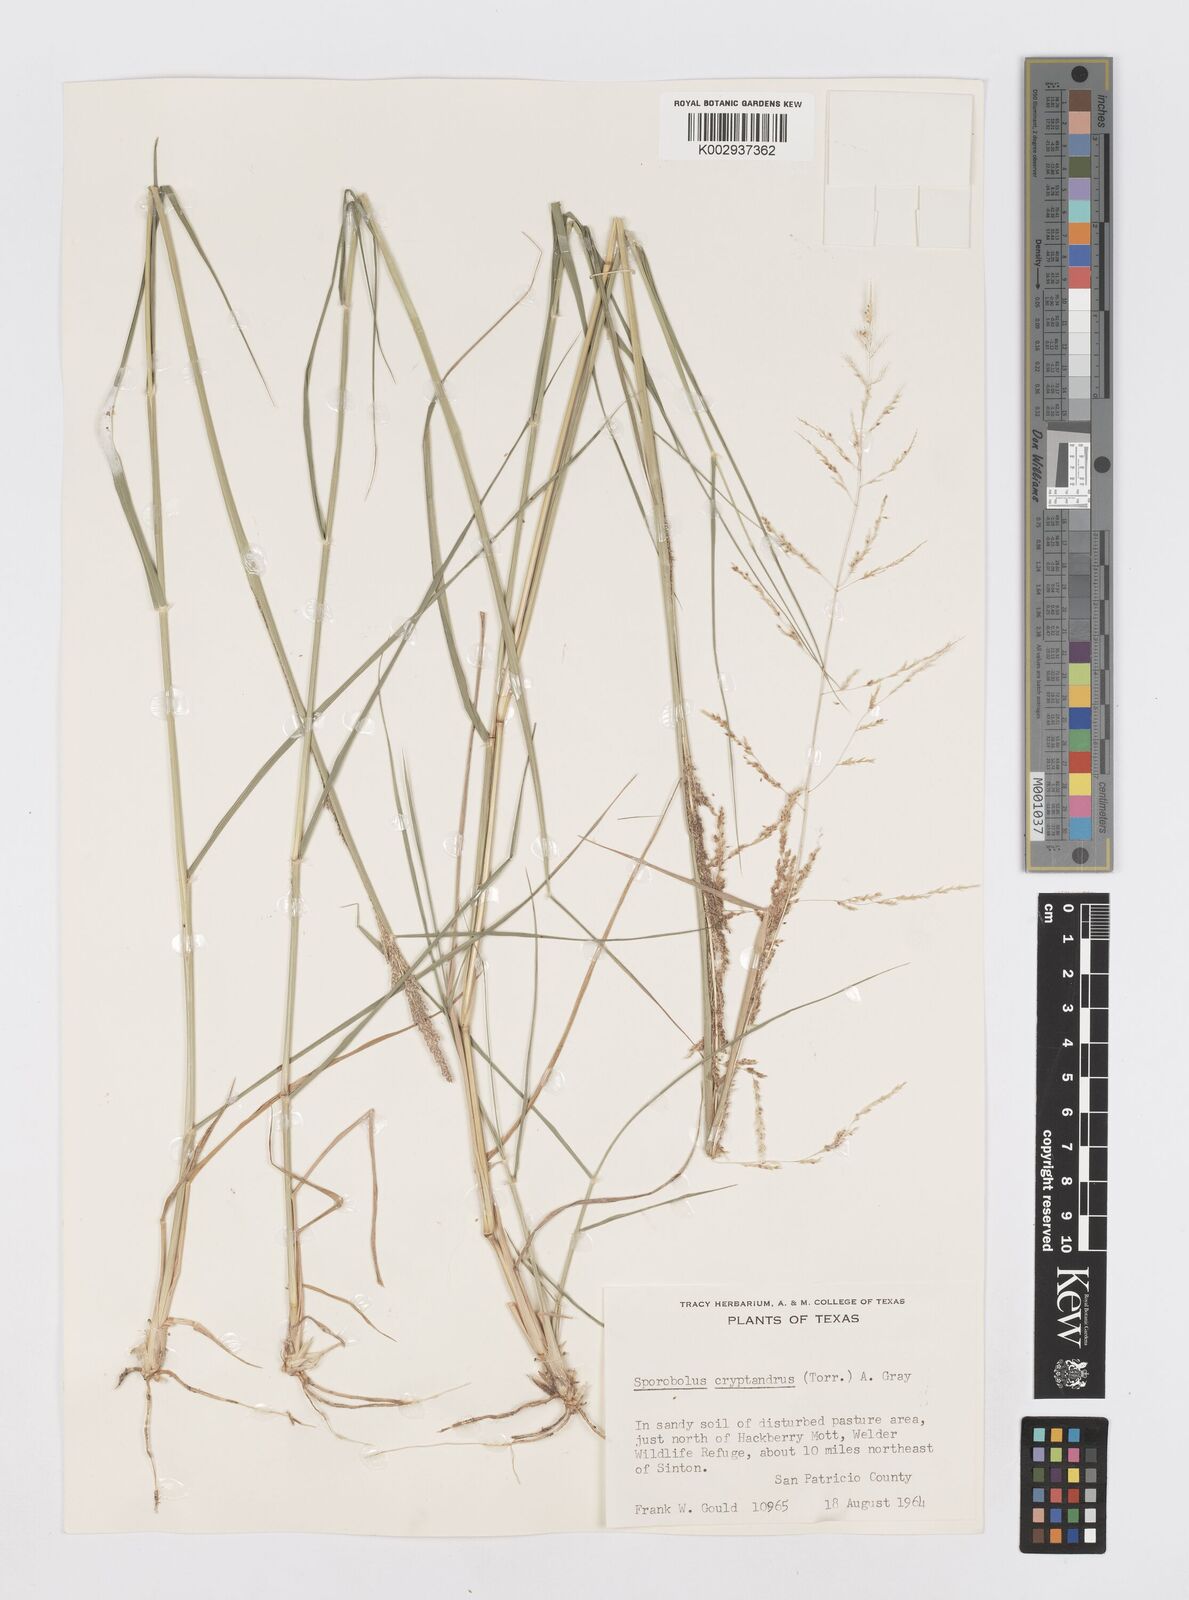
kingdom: Plantae
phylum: Tracheophyta
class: Liliopsida
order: Poales
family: Poaceae
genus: Sporobolus
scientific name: Sporobolus cryptandrus
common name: Sand dropseed
